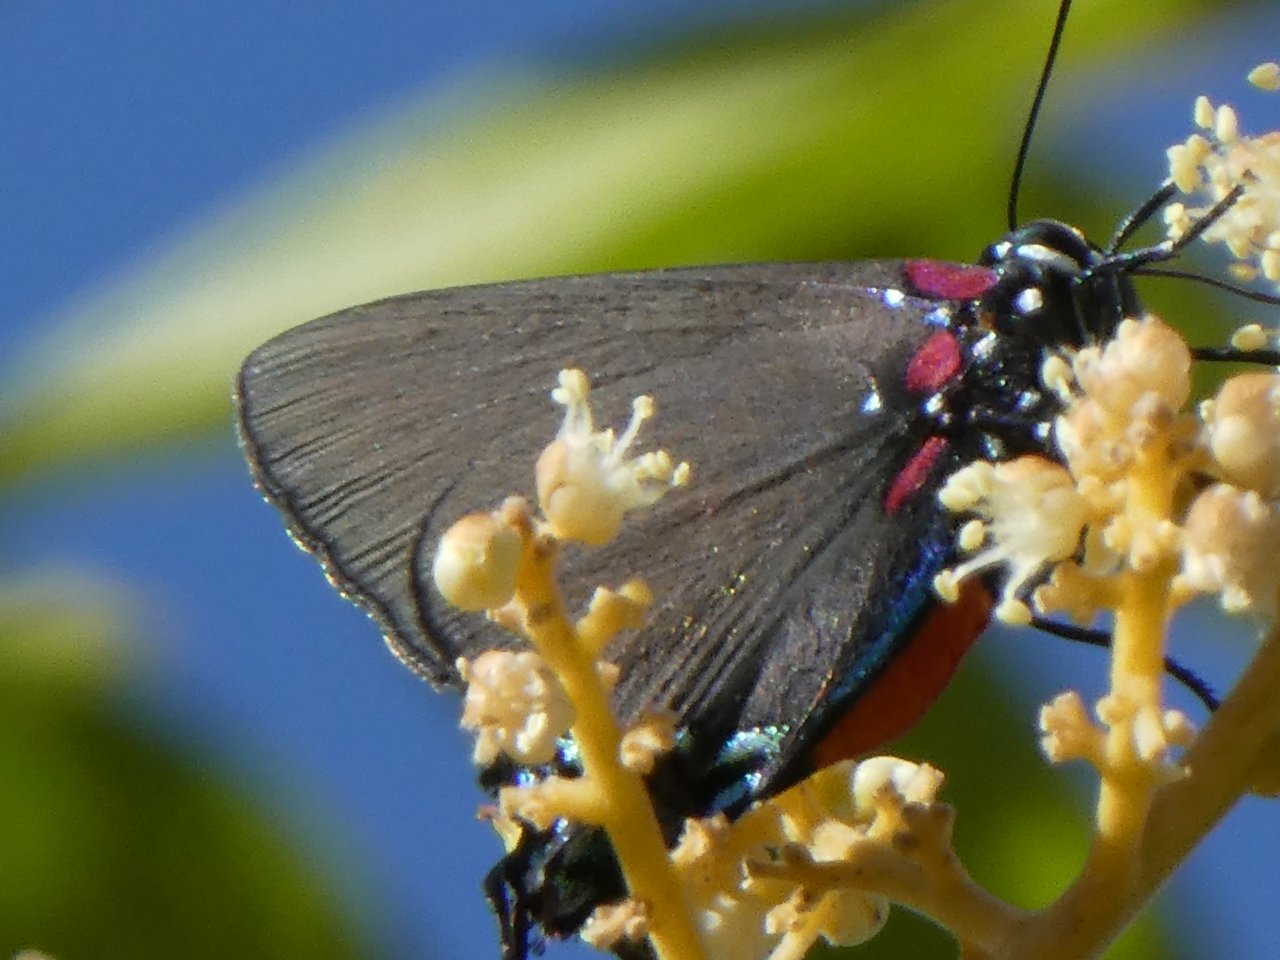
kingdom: Animalia
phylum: Arthropoda
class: Insecta
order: Lepidoptera
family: Lycaenidae
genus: Atlides
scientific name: Atlides halesus
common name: Great Purple Hairstreak
